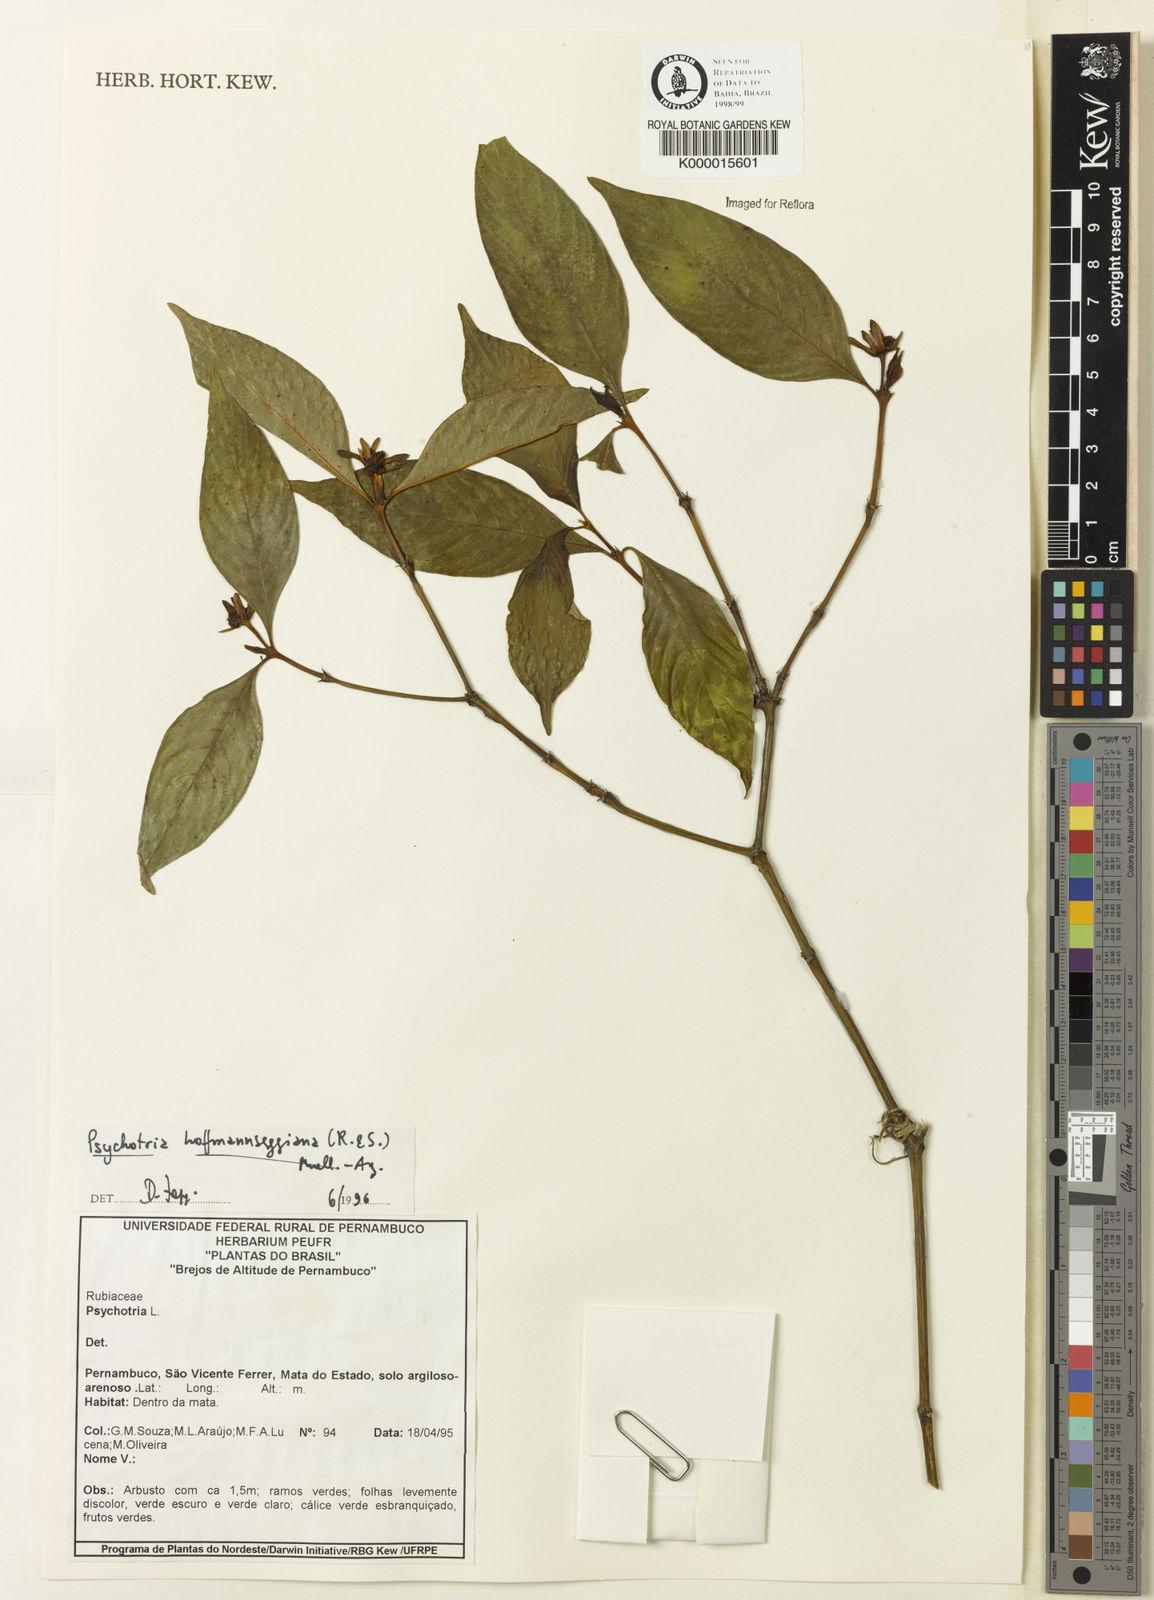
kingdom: Plantae
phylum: Tracheophyta
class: Magnoliopsida
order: Gentianales
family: Rubiaceae
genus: Psychotria
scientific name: Psychotria
